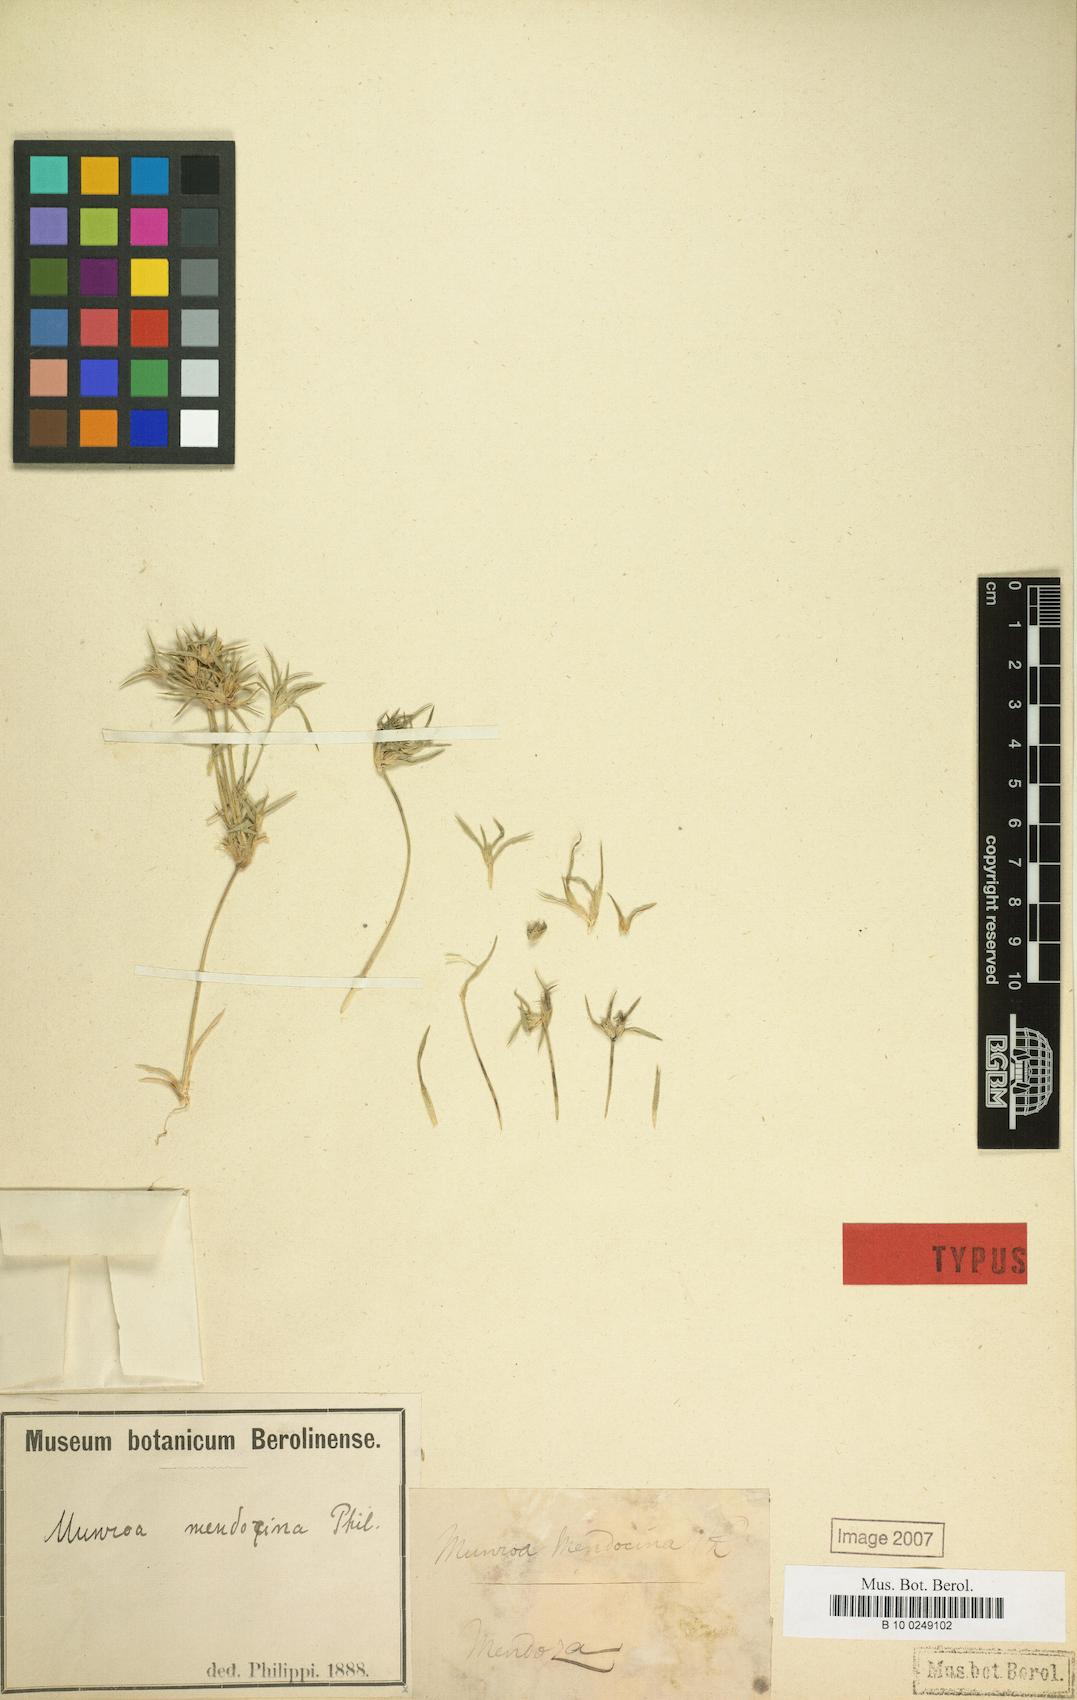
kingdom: Plantae
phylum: Tracheophyta
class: Liliopsida
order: Poales
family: Poaceae
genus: Munroa
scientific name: Munroa mendocina
